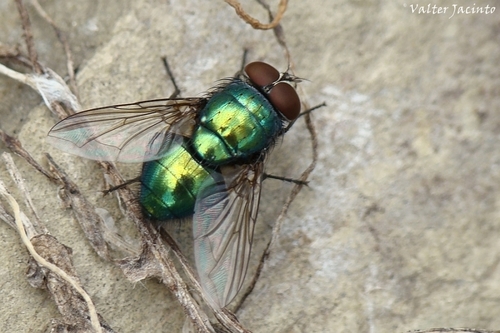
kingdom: Animalia
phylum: Arthropoda
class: Insecta
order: Diptera
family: Calliphoridae
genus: Lucilia
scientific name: Lucilia caesar
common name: Blow fly
